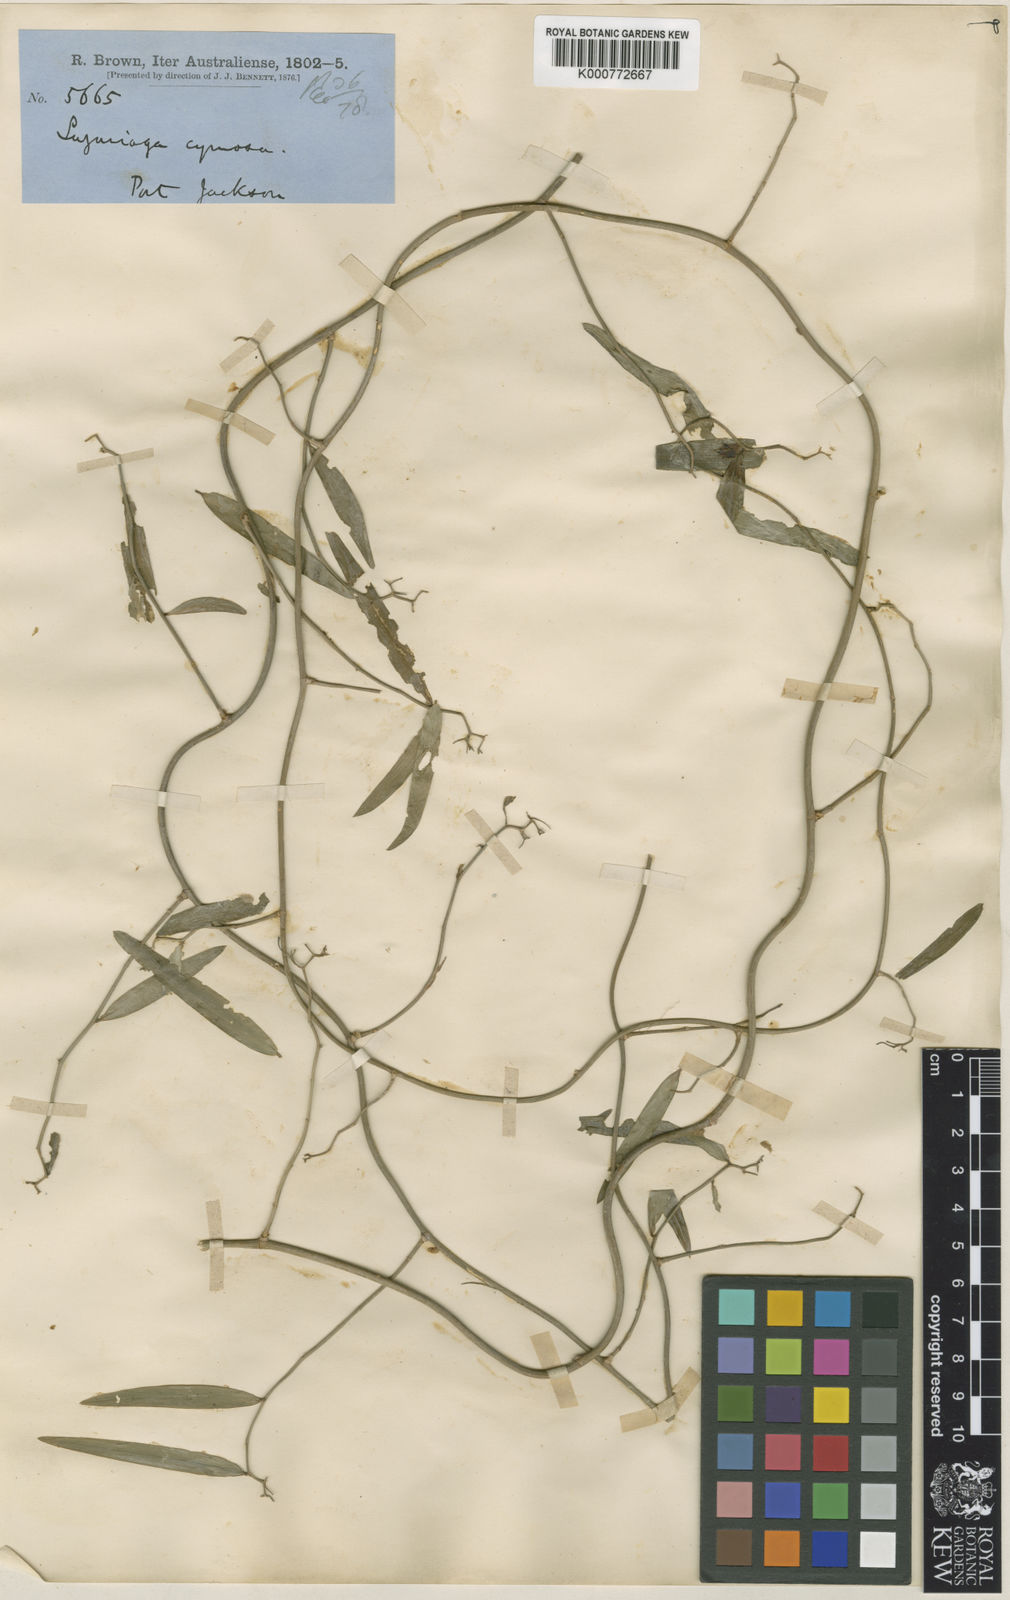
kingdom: Plantae
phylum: Tracheophyta
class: Liliopsida
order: Asparagales
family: Asphodelaceae
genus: Geitonoplesium
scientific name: Geitonoplesium
